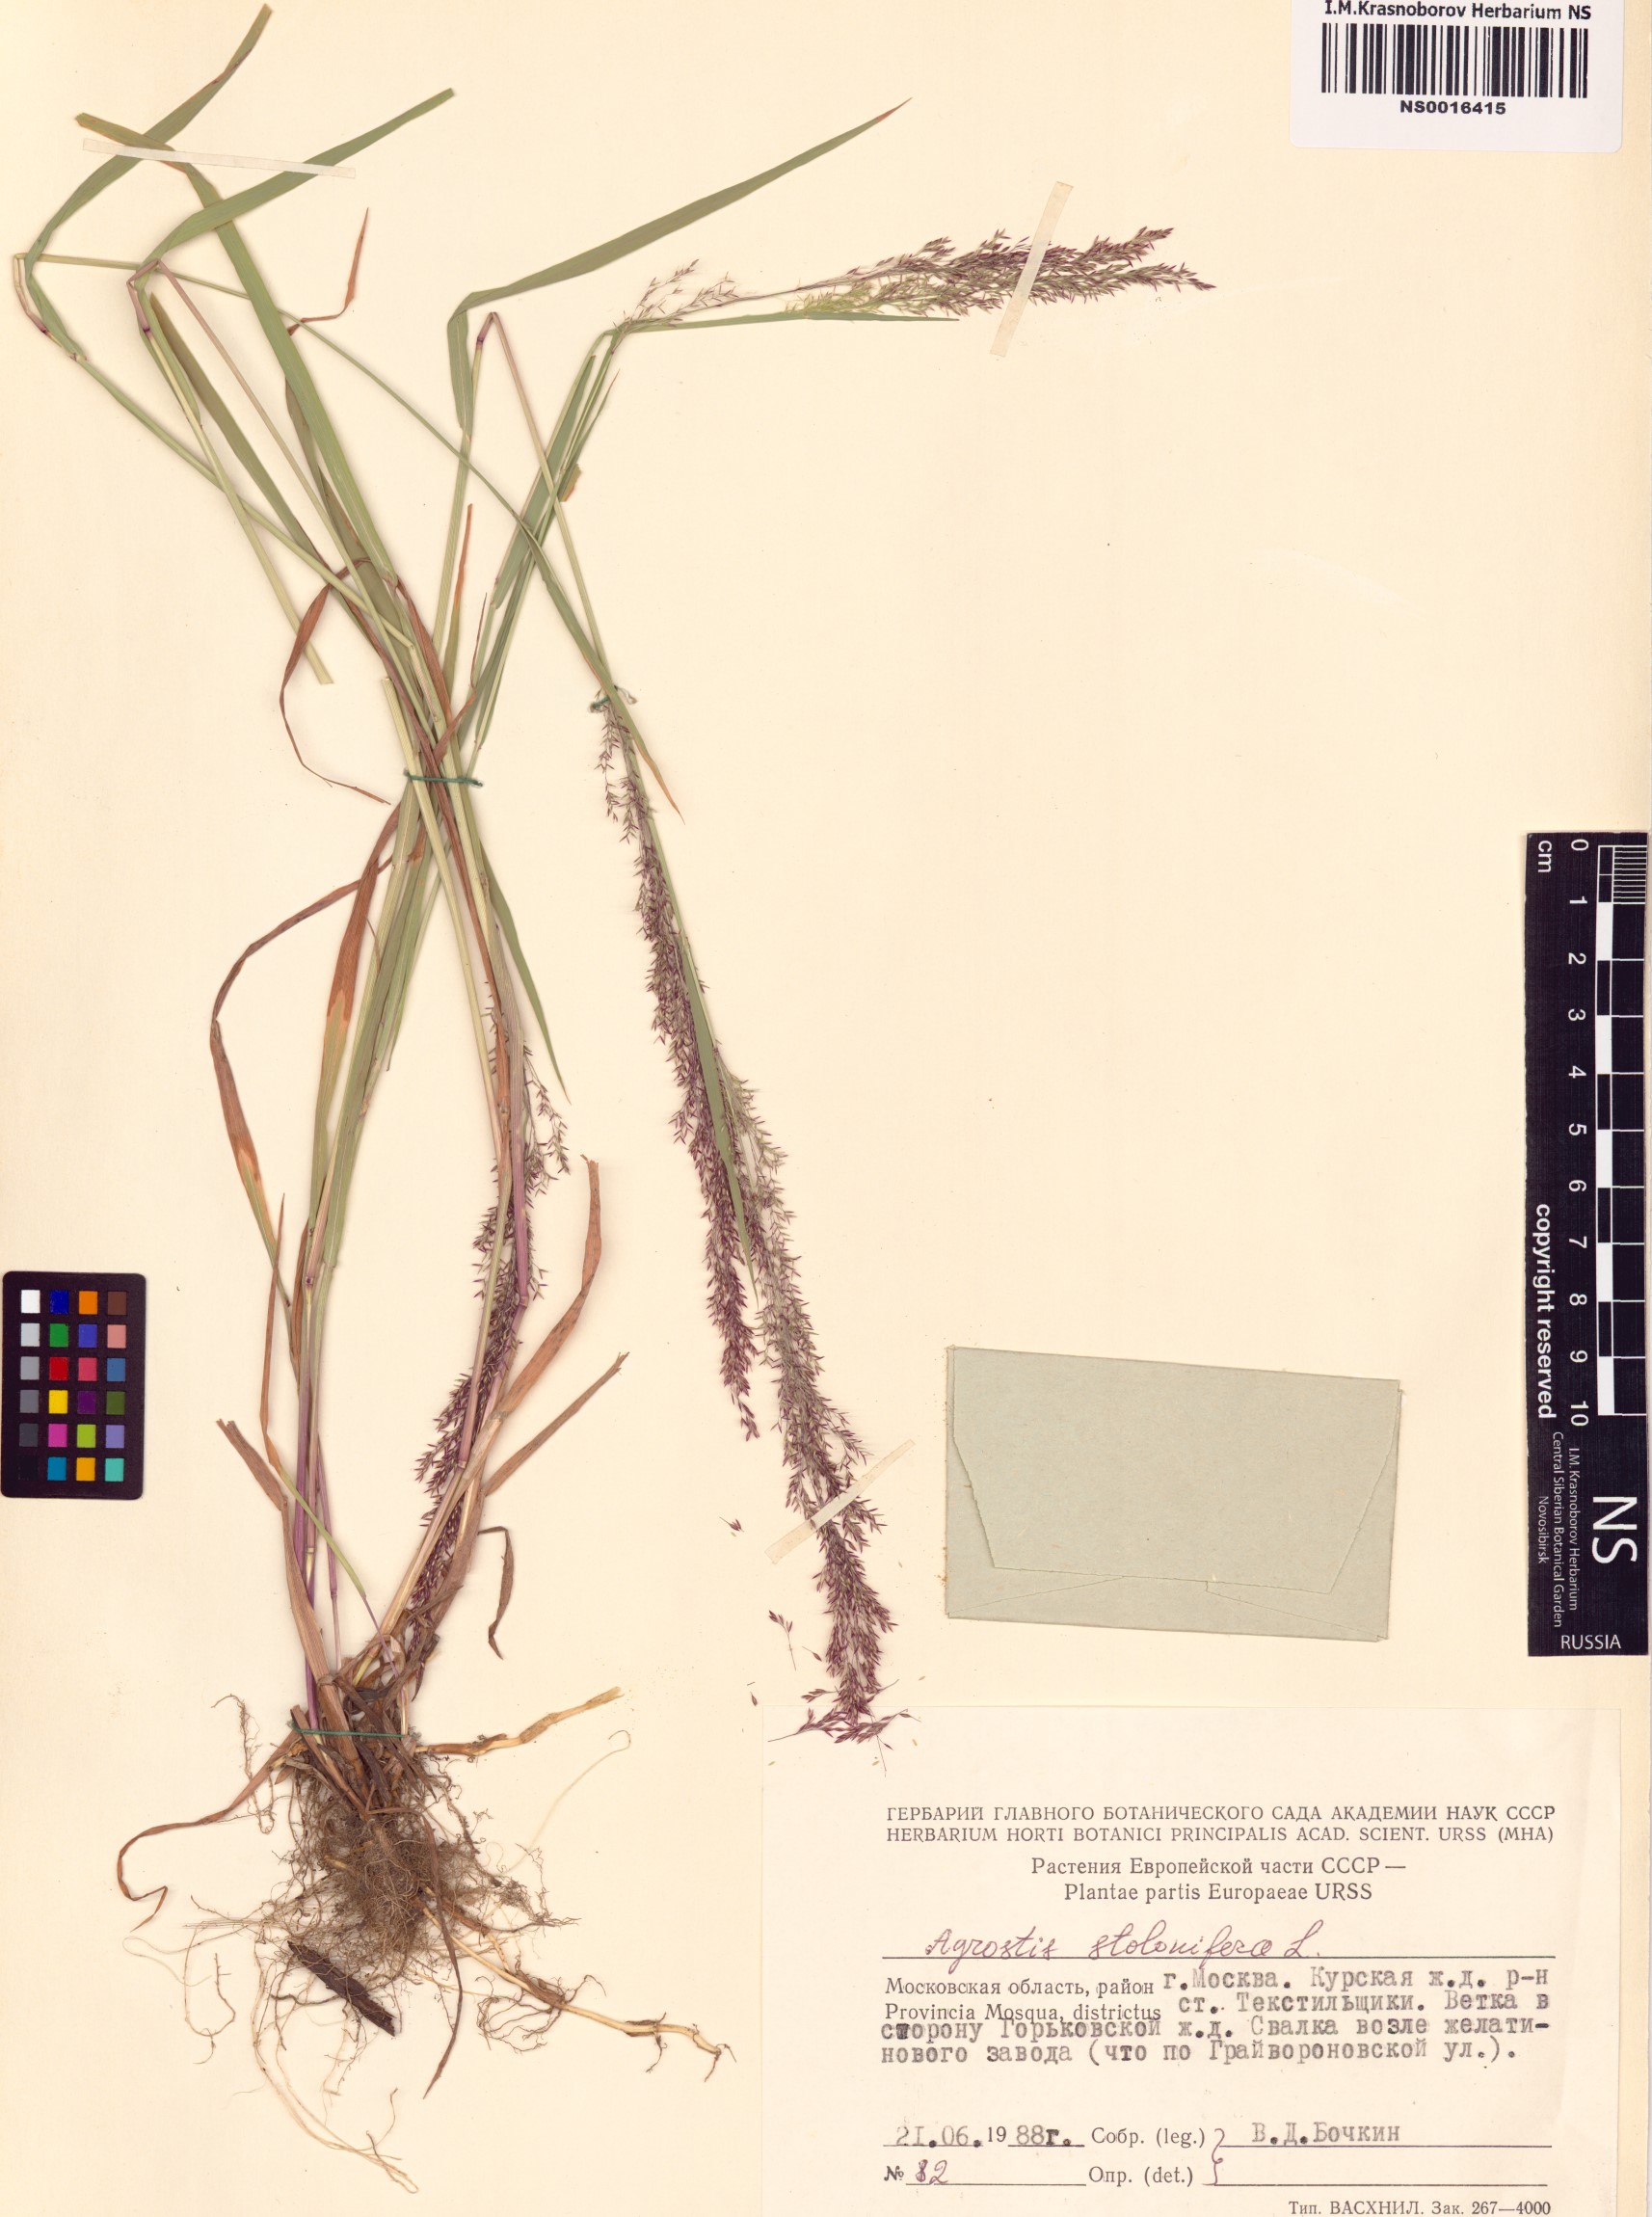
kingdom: Plantae
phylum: Tracheophyta
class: Liliopsida
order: Poales
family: Poaceae
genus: Agrostis
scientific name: Agrostis stolonifera
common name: Creeping bentgrass
